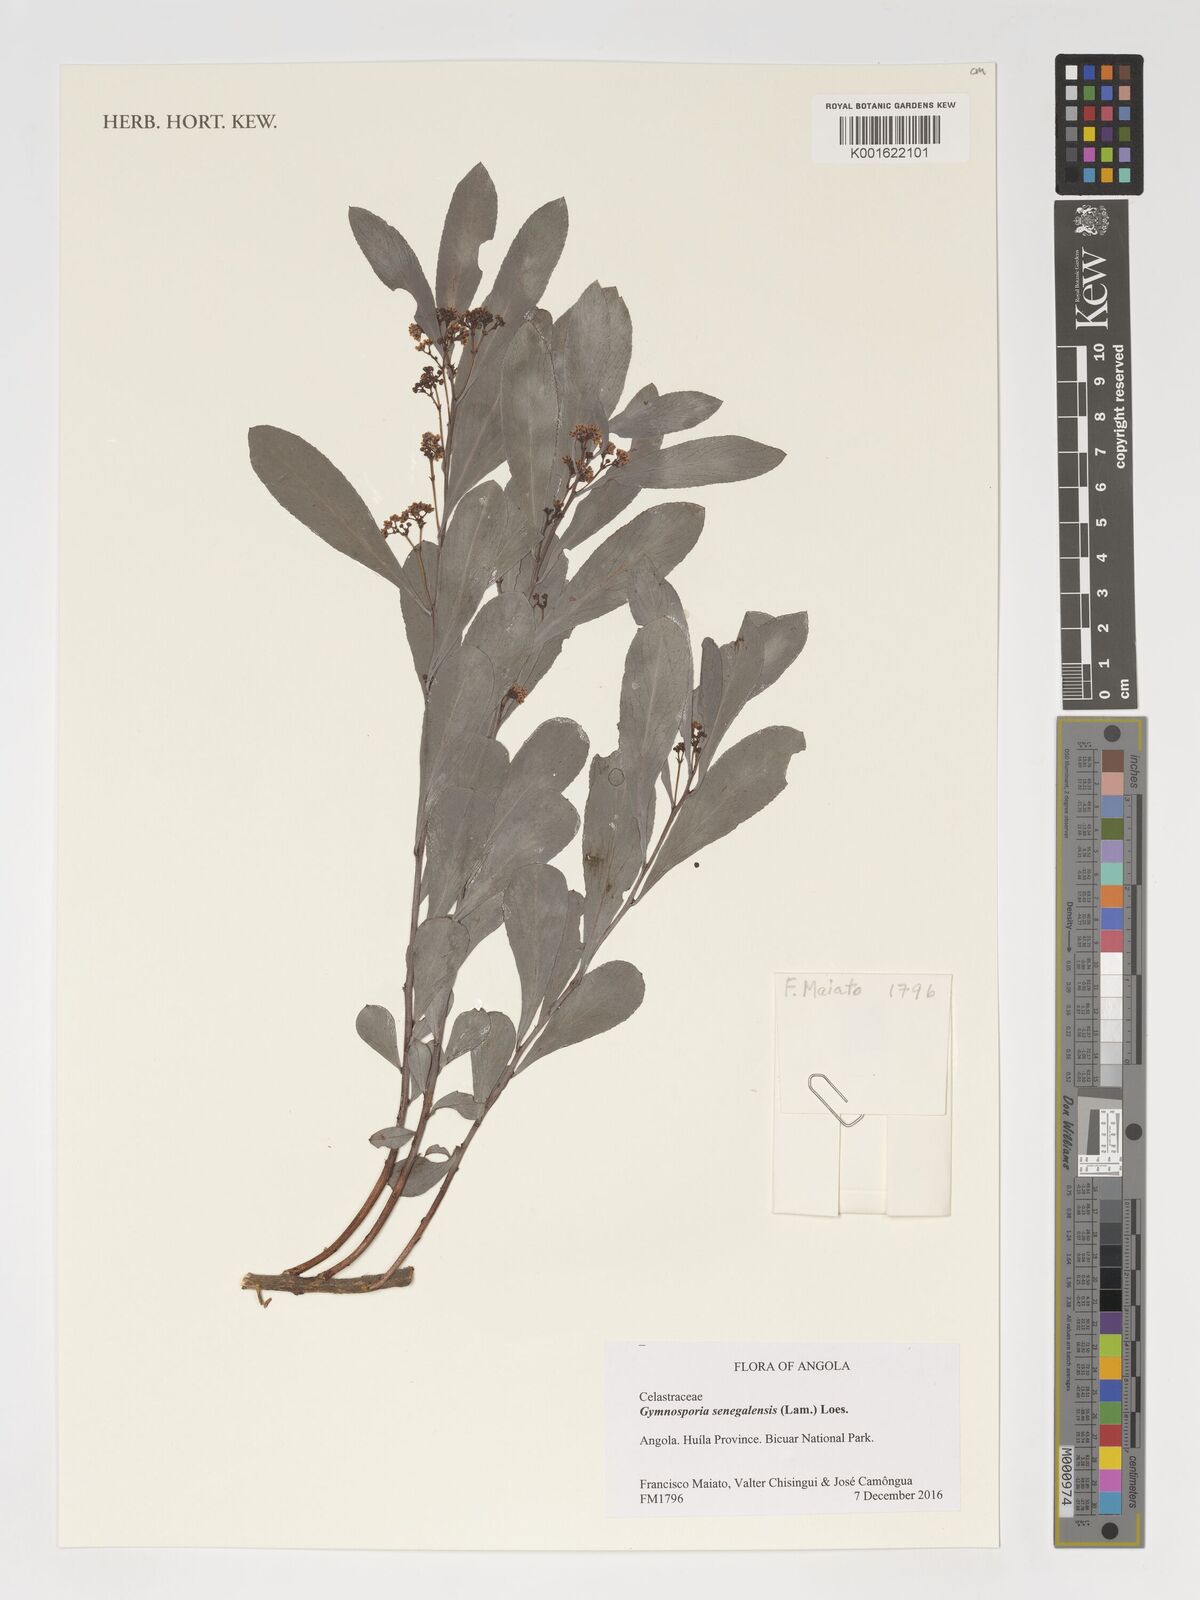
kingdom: Plantae
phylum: Tracheophyta
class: Magnoliopsida
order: Celastrales
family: Celastraceae
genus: Gymnosporia
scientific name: Gymnosporia senegalensis
